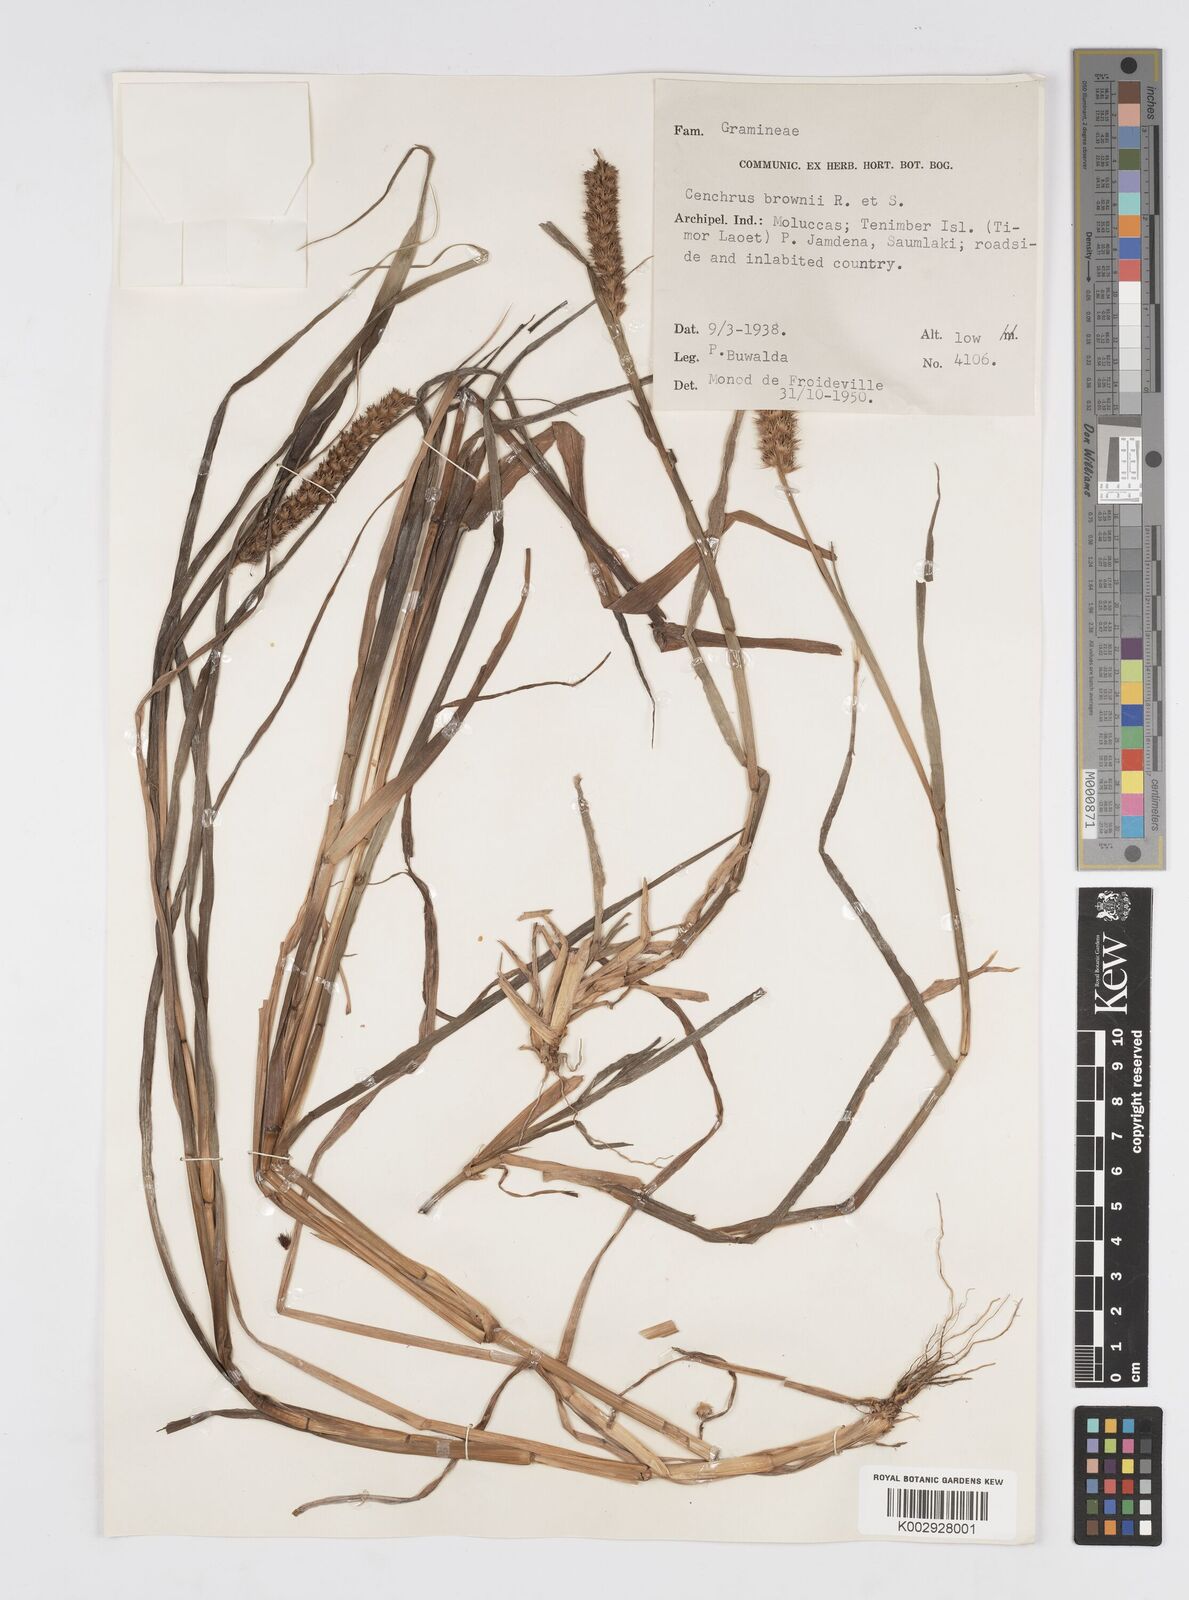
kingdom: Plantae
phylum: Tracheophyta
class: Liliopsida
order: Poales
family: Poaceae
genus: Cenchrus
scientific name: Cenchrus brownii
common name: Slim-bristle sandbur
